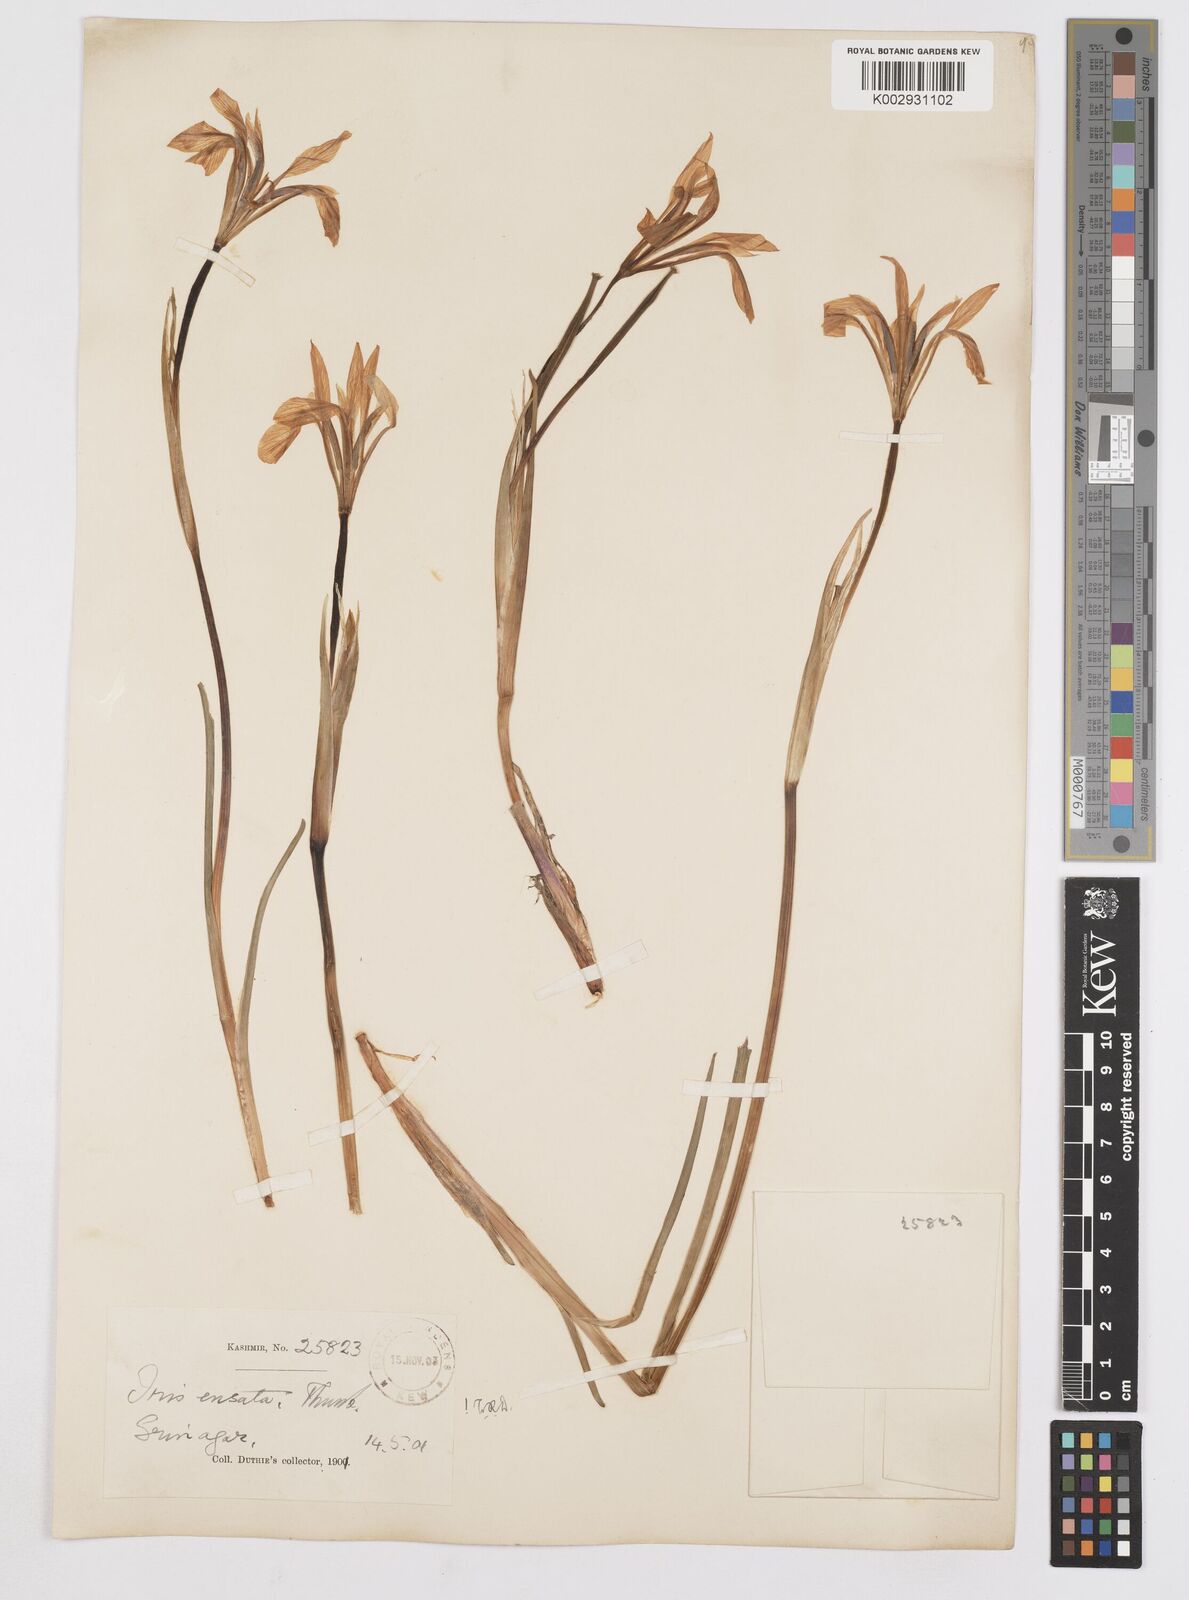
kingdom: Plantae
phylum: Tracheophyta
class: Liliopsida
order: Asparagales
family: Iridaceae
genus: Iris
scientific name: Iris ensata
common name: Beaked iris
